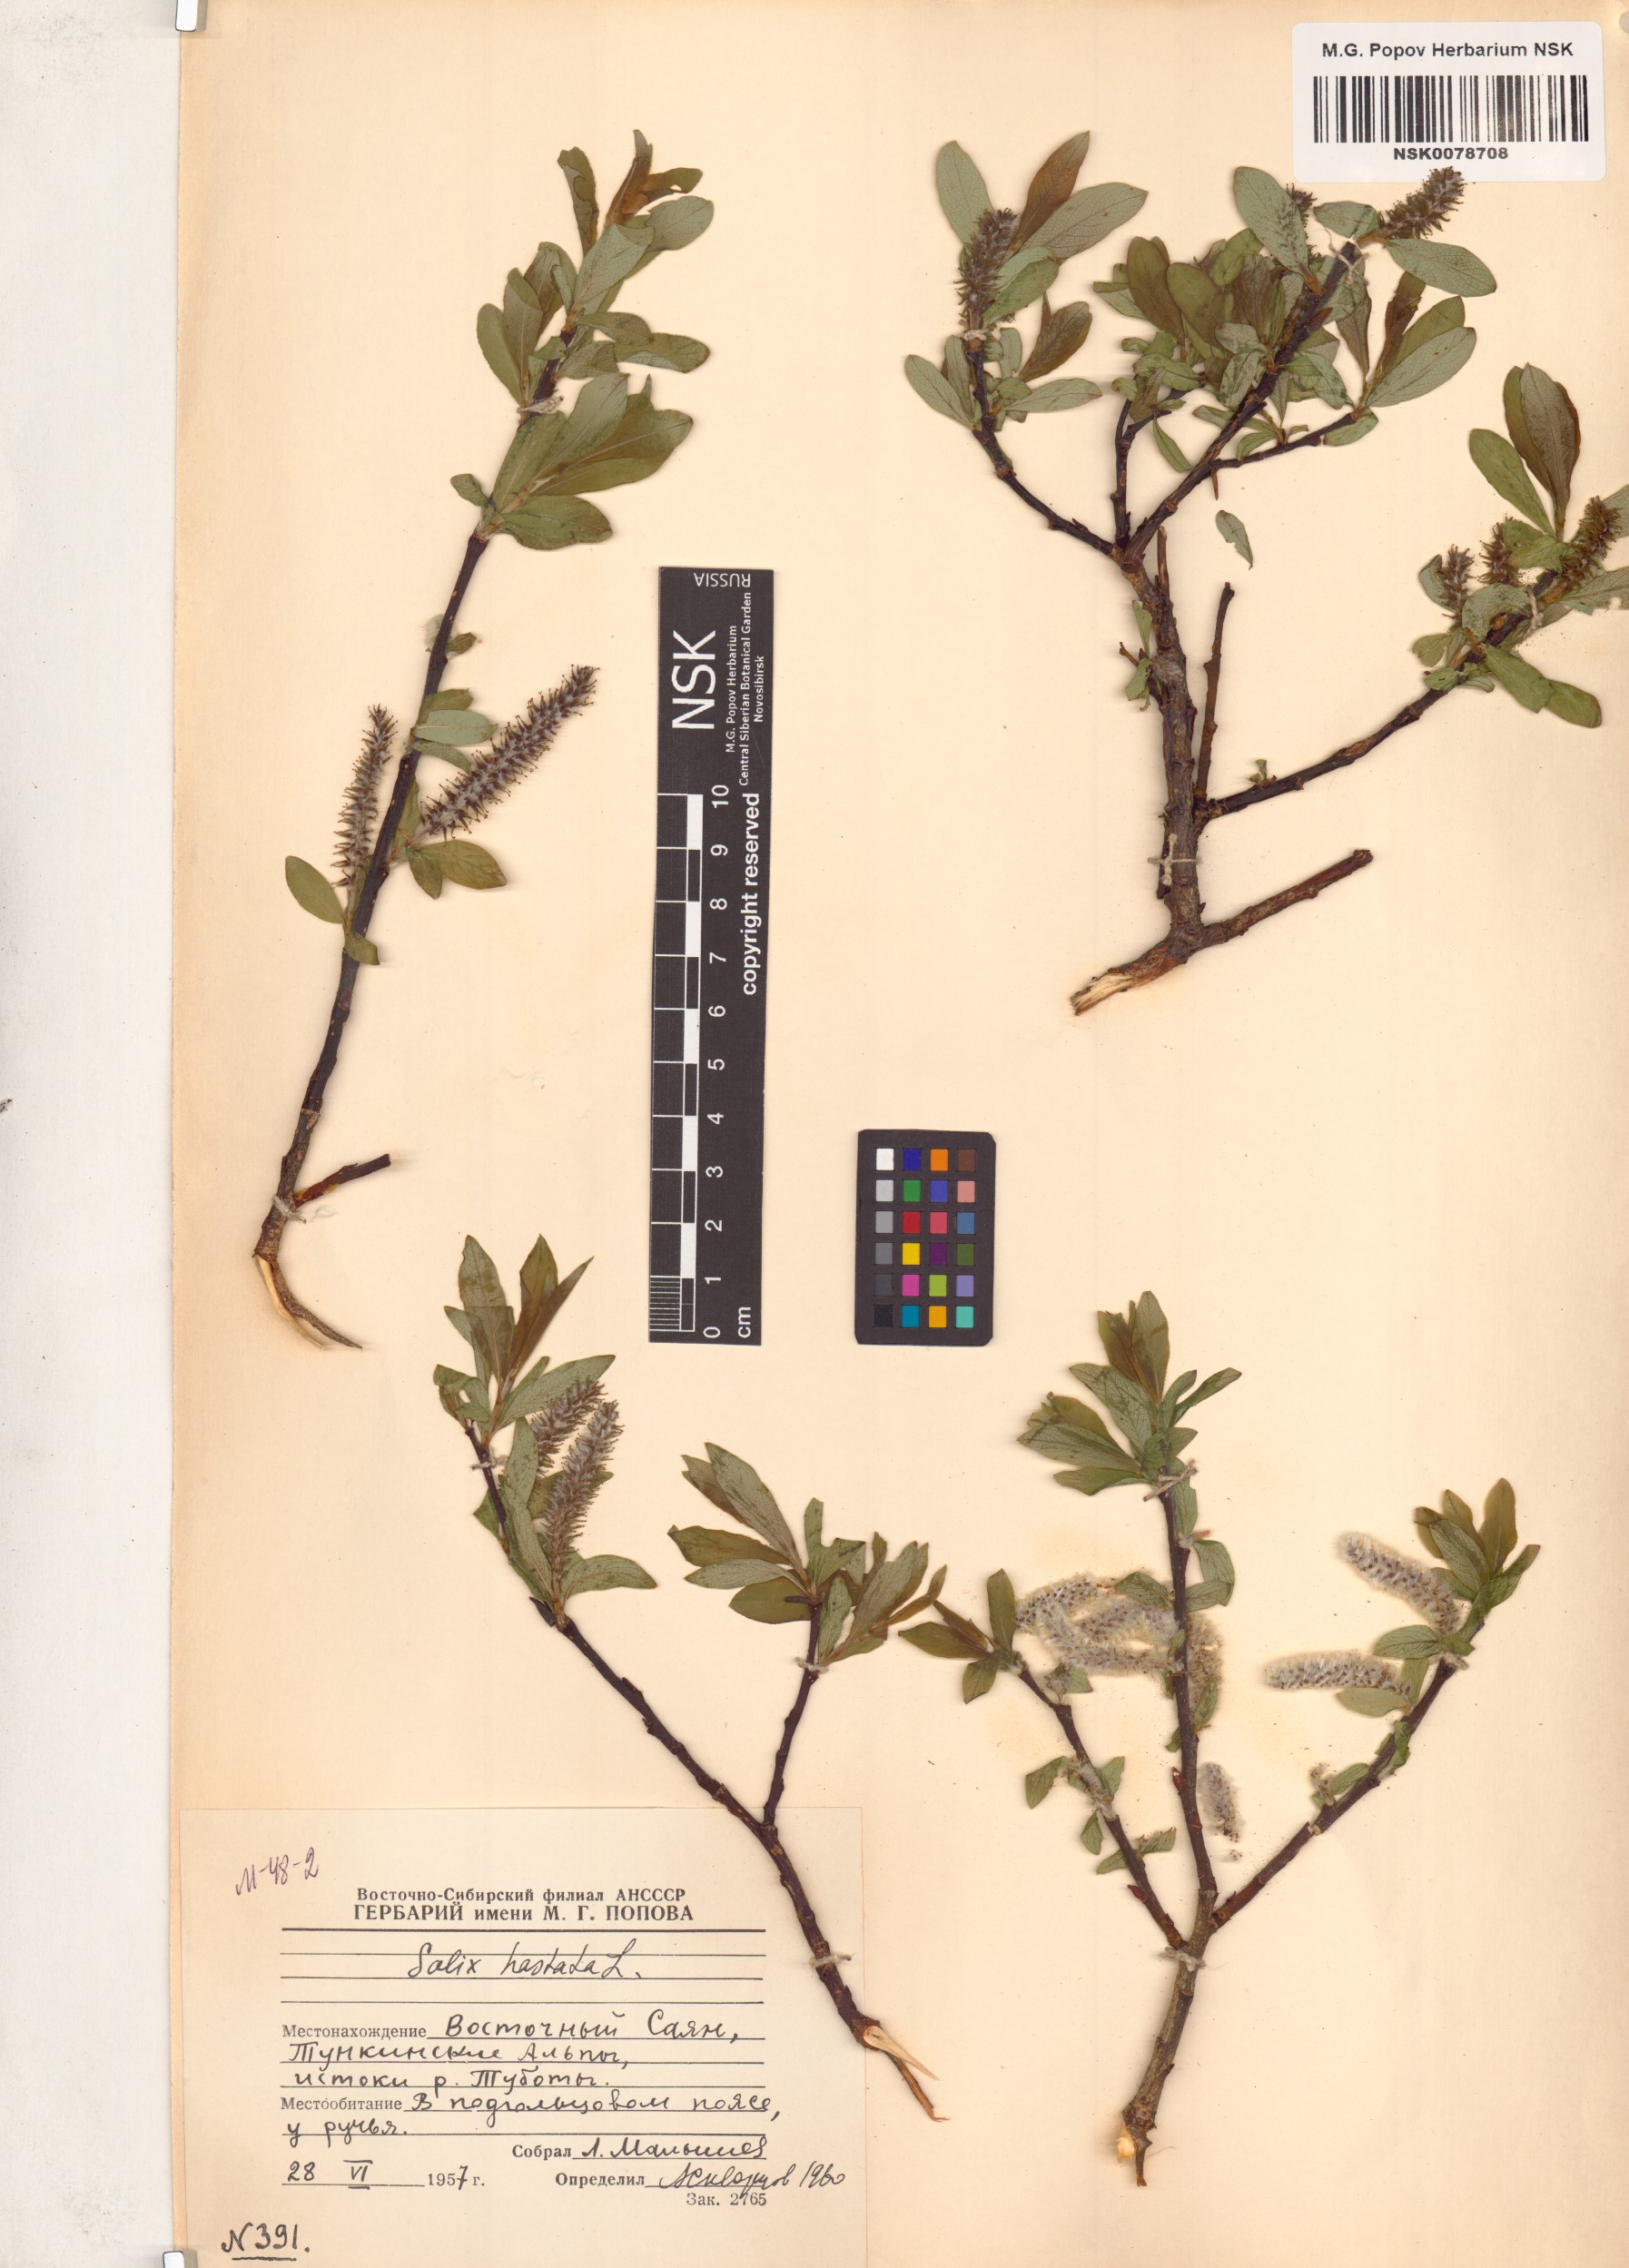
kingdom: Plantae
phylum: Tracheophyta
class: Magnoliopsida
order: Malpighiales
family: Salicaceae
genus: Salix
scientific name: Salix hastata
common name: Halberd willow
